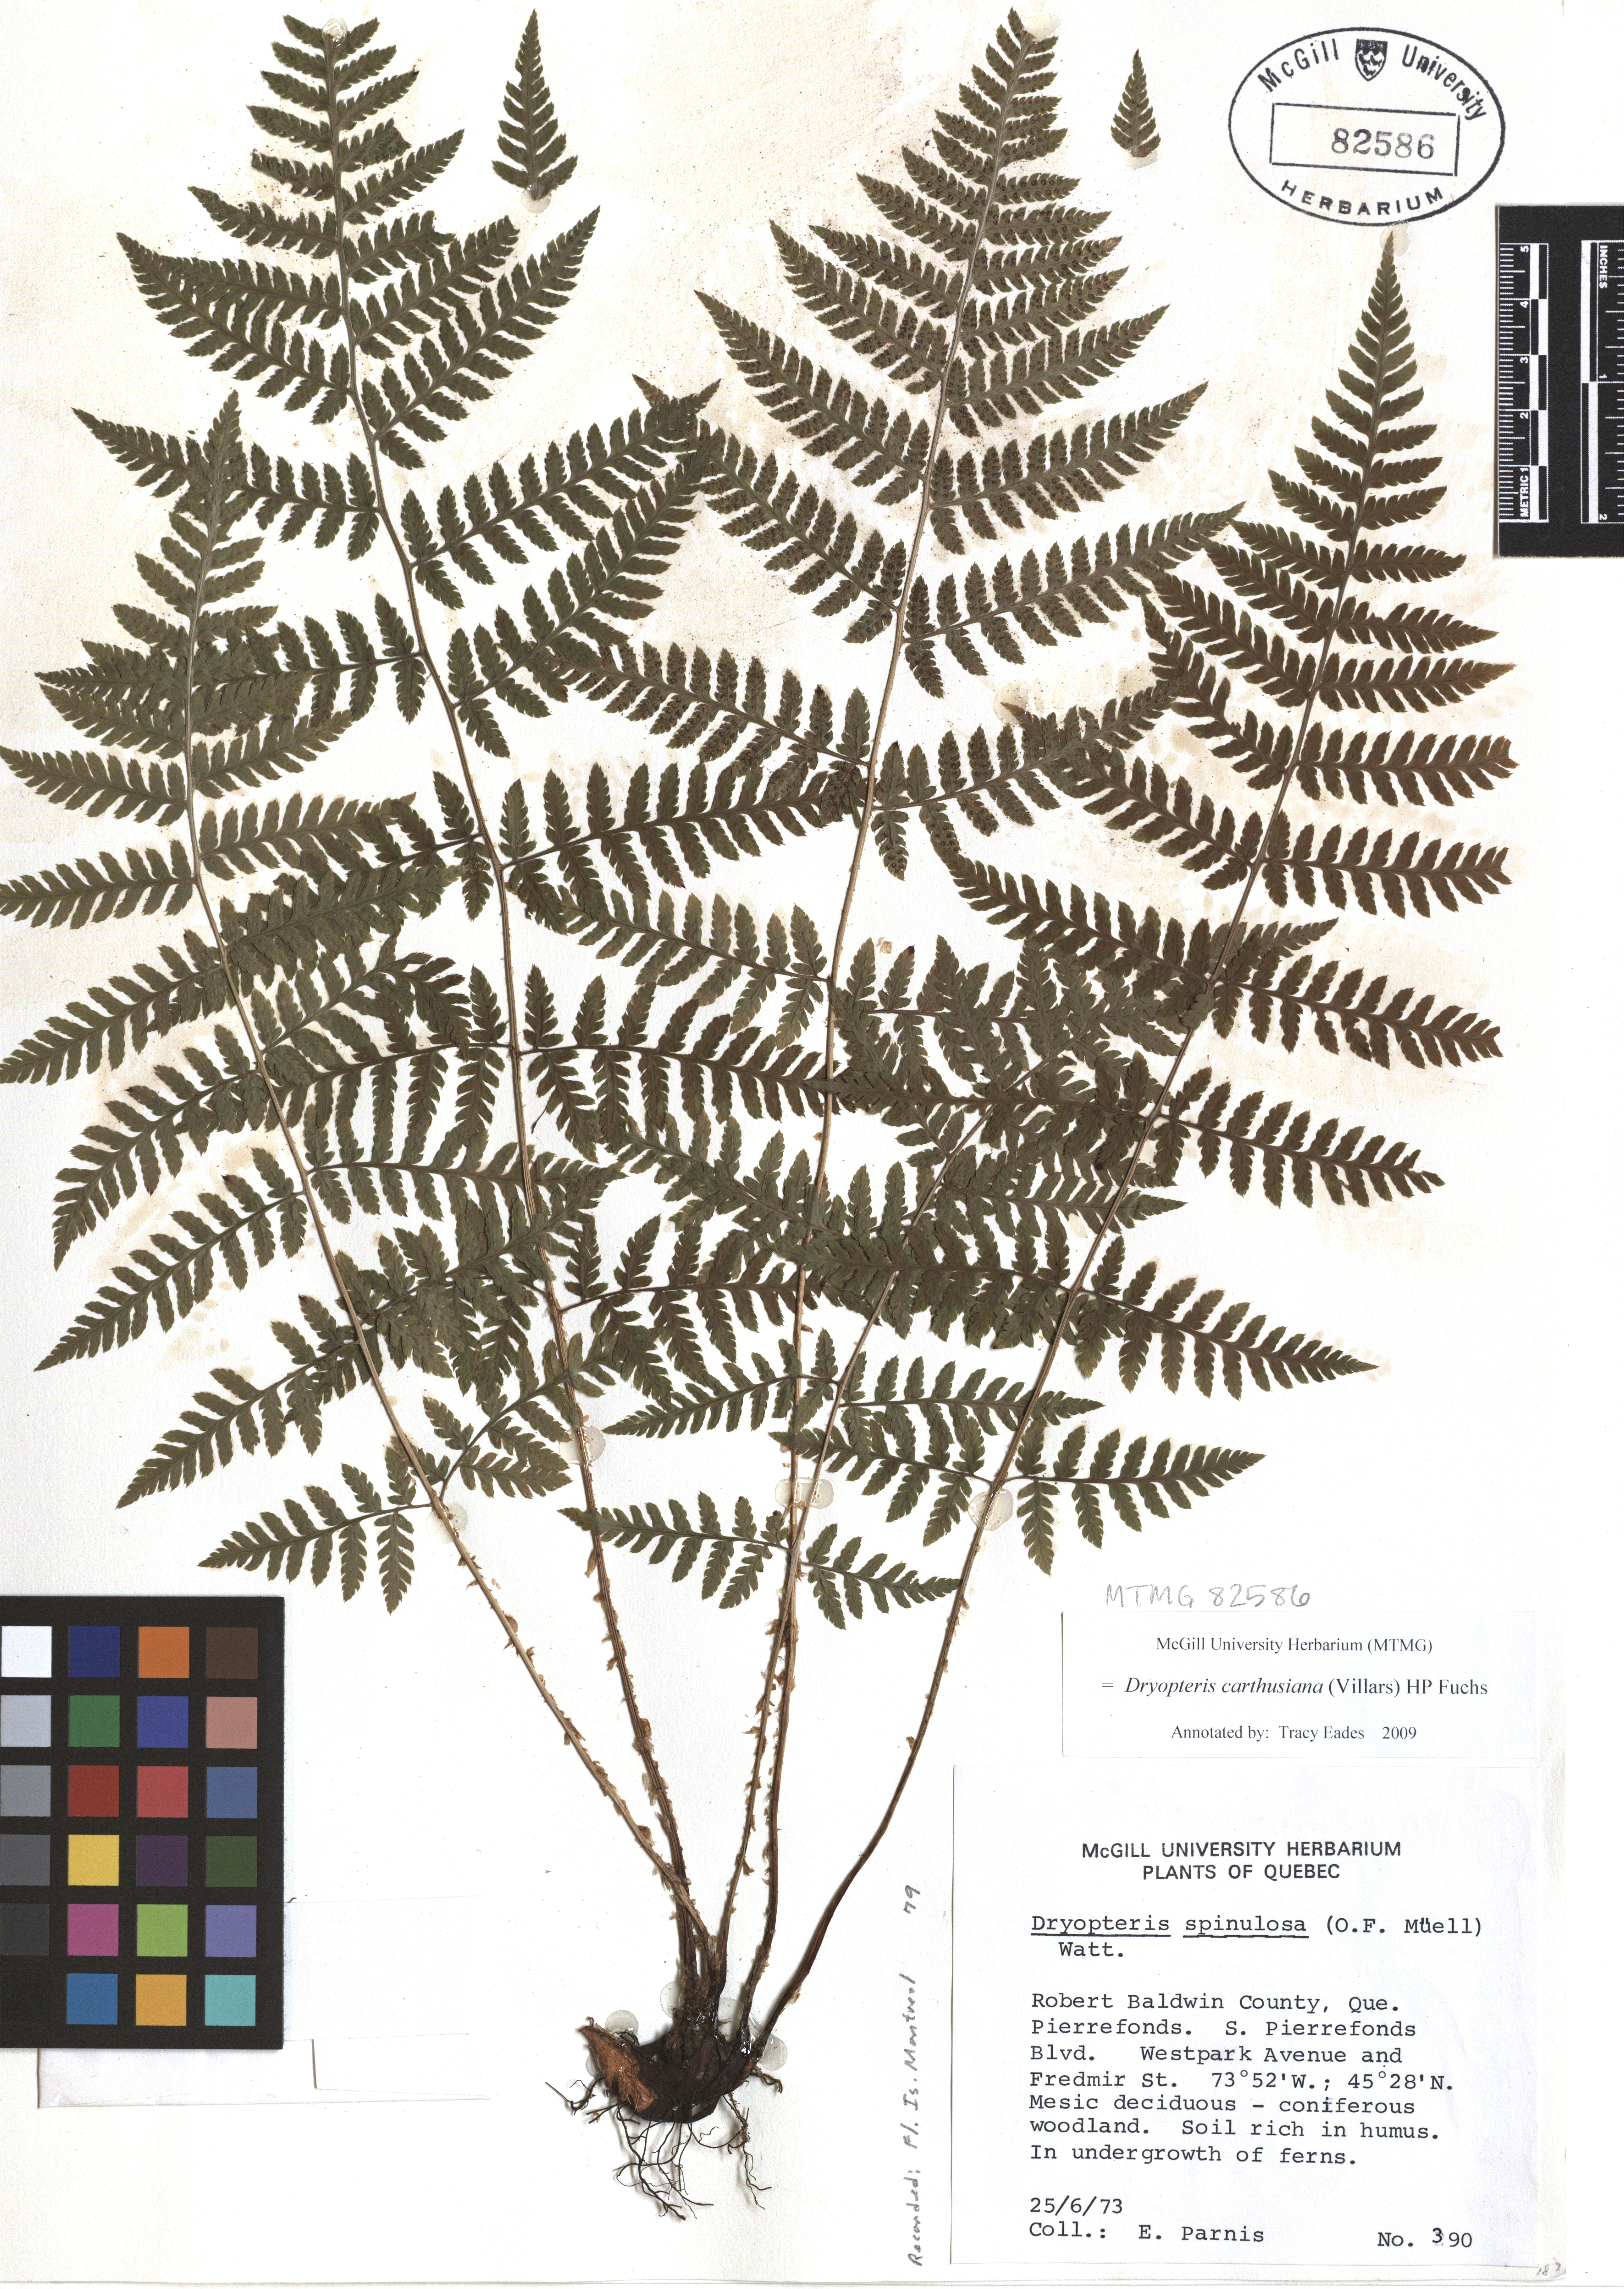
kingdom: Plantae
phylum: Tracheophyta
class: Polypodiopsida
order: Polypodiales
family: Dryopteridaceae
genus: Dryopteris
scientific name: Dryopteris carthusiana
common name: Narrow buckler-fern
